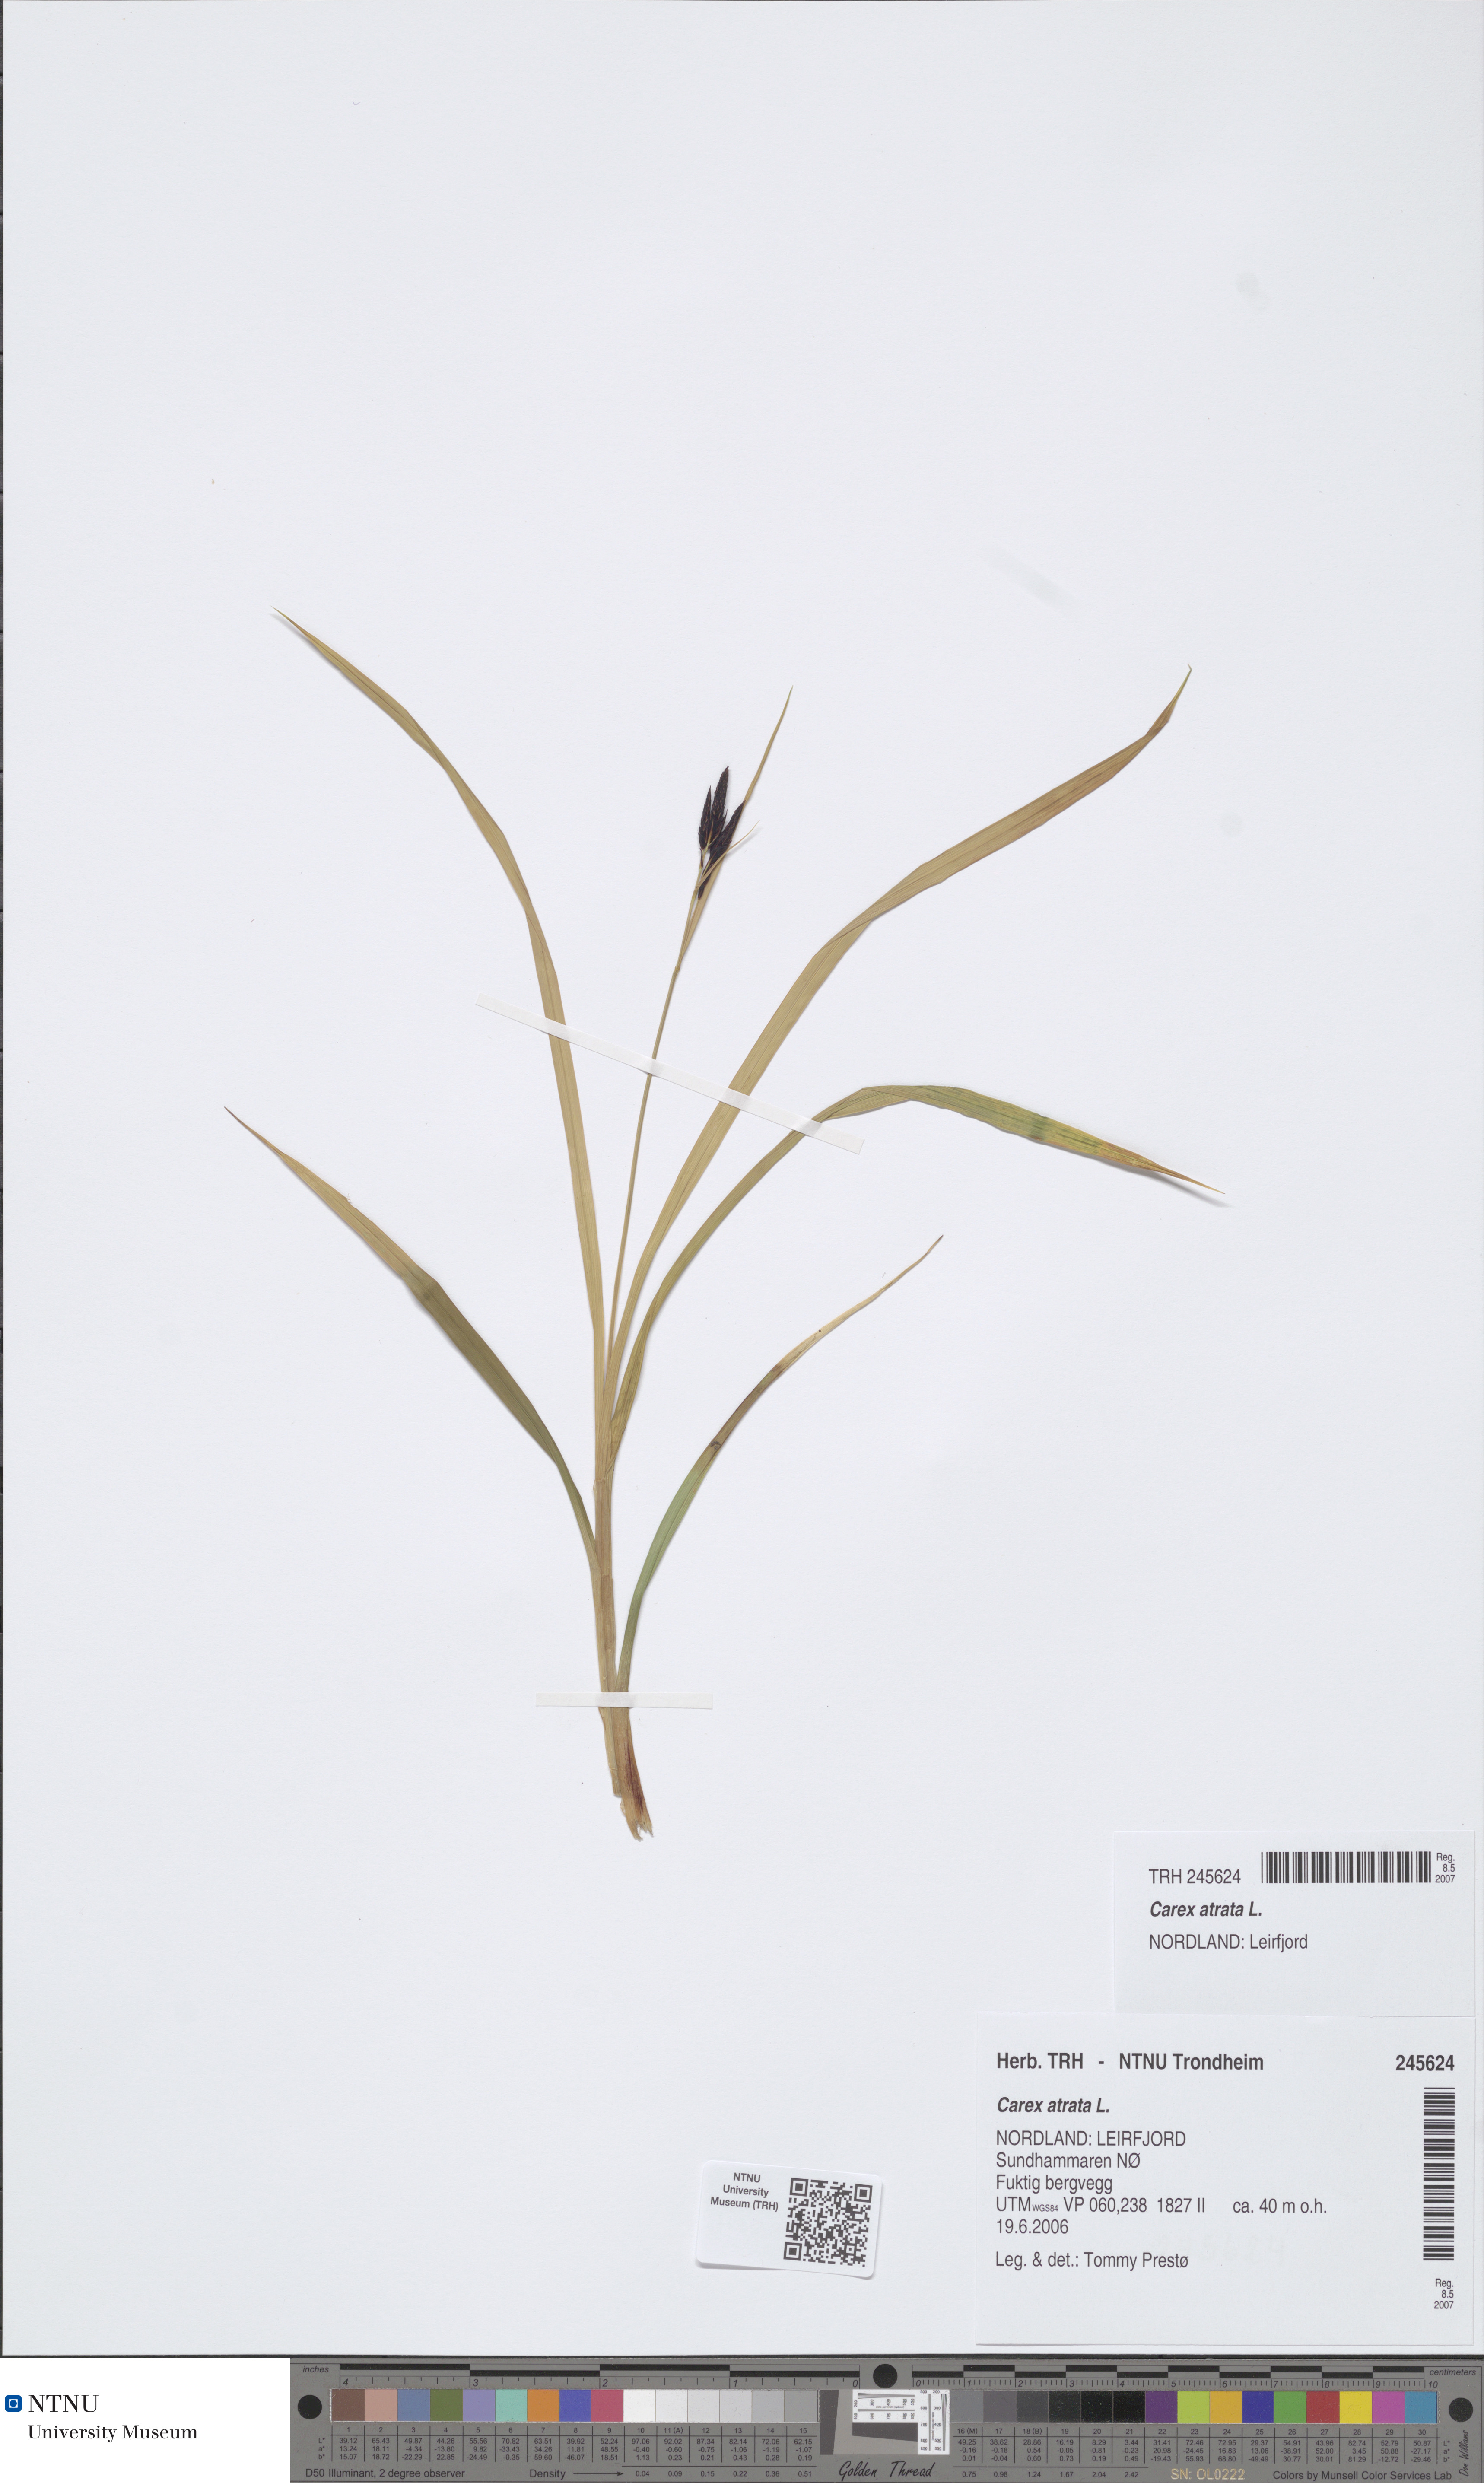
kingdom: Plantae
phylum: Tracheophyta
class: Liliopsida
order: Poales
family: Cyperaceae
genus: Carex
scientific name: Carex atrata
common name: Black alpine sedge
